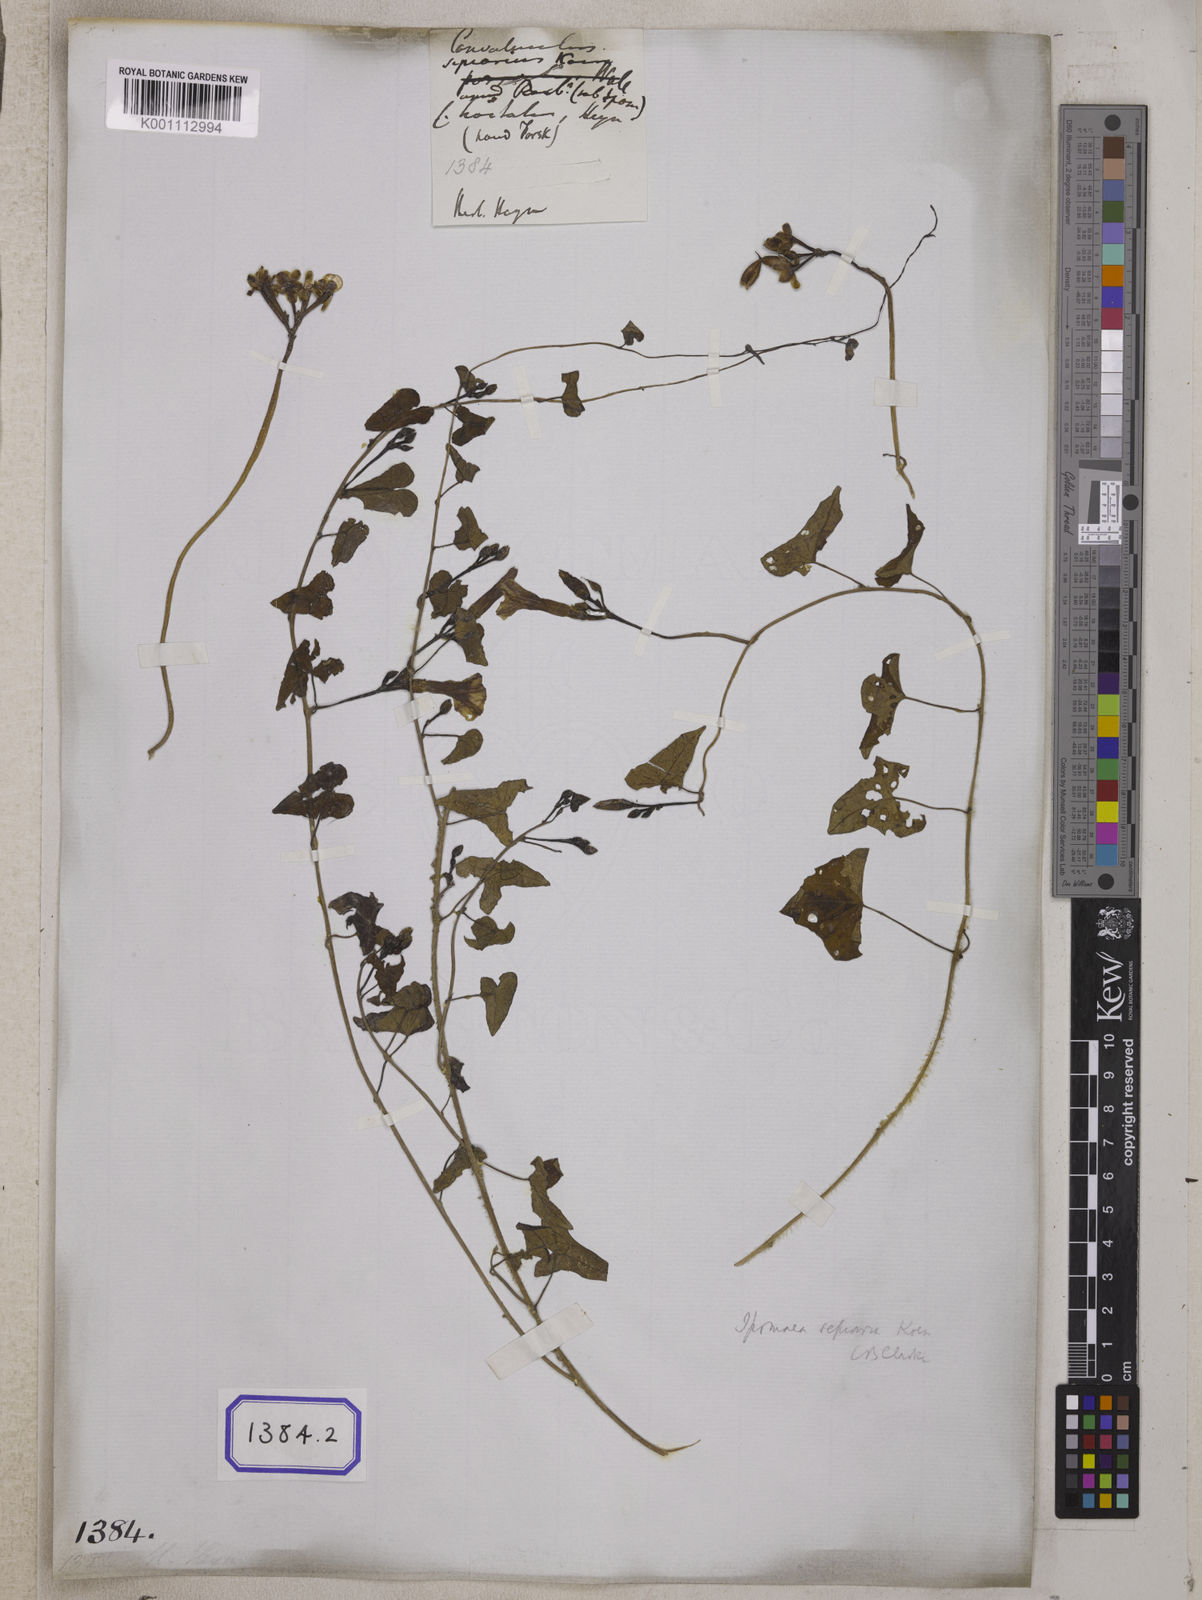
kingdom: Plantae
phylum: Tracheophyta
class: Magnoliopsida
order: Solanales
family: Convolvulaceae
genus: Ipomoea
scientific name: Ipomoea sagittifolia
